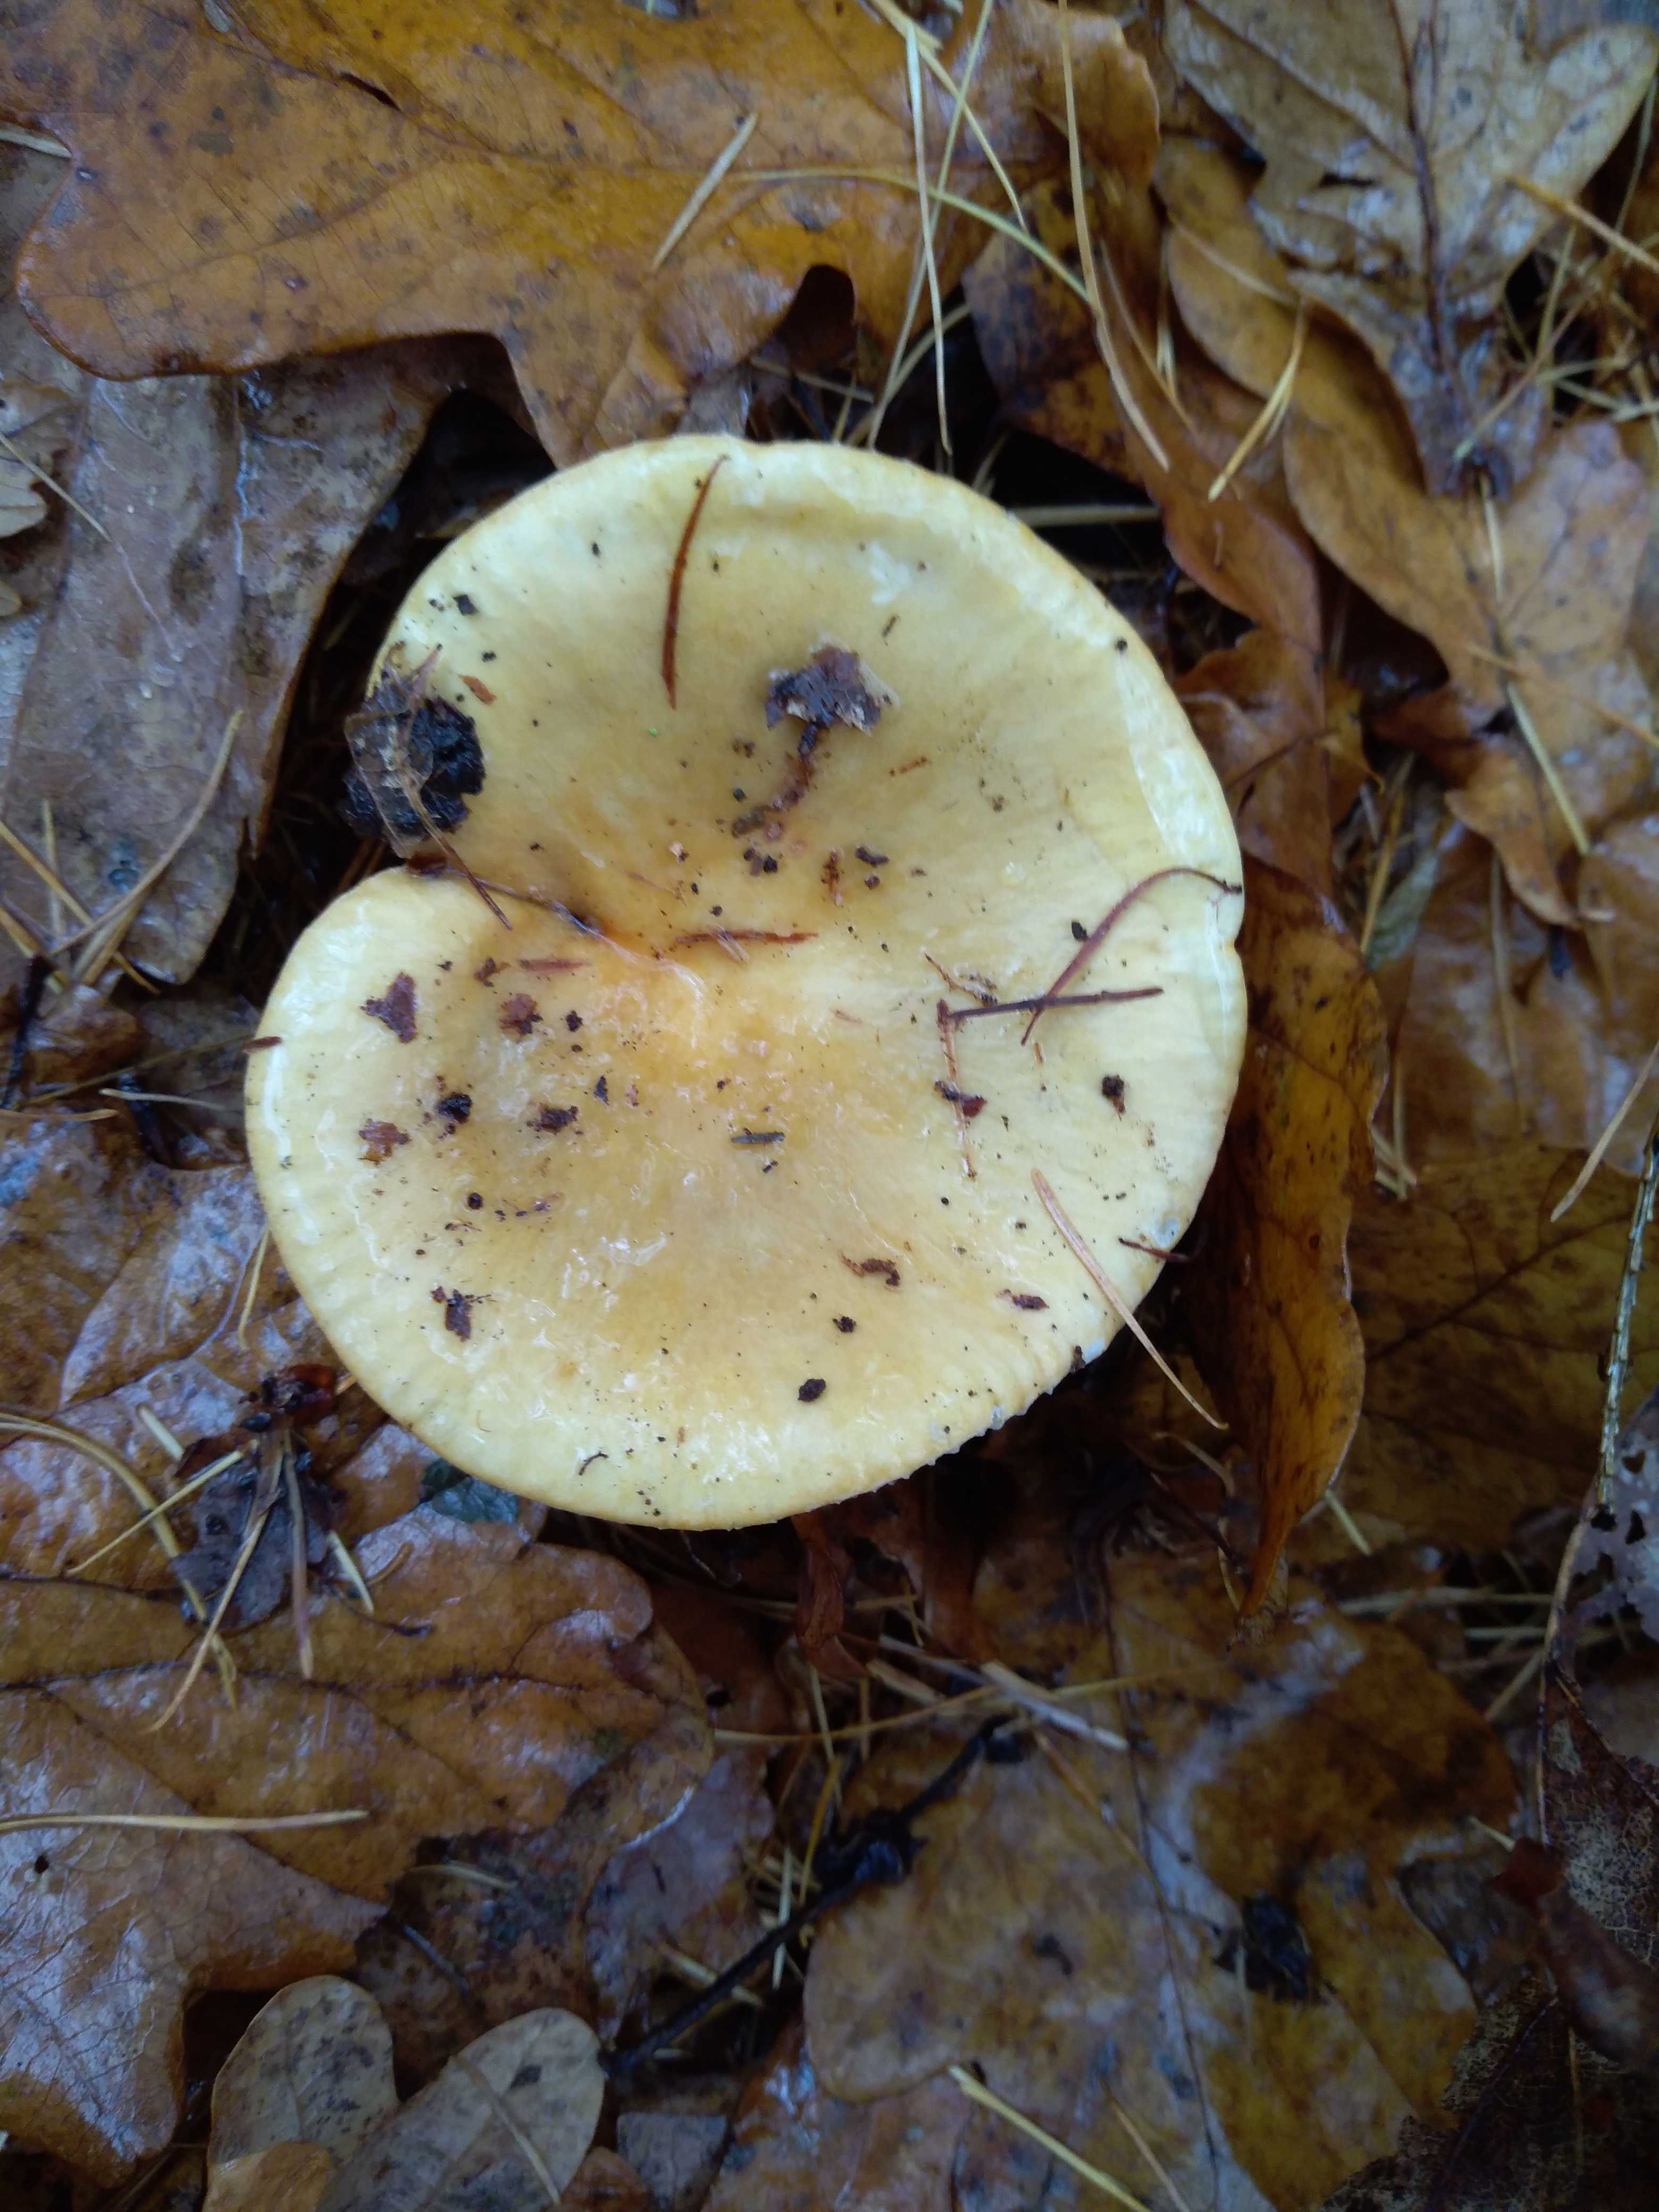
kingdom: Fungi
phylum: Basidiomycota
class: Agaricomycetes
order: Russulales
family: Russulaceae
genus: Russula
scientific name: Russula ochroleuca
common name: okkergul skørhat
